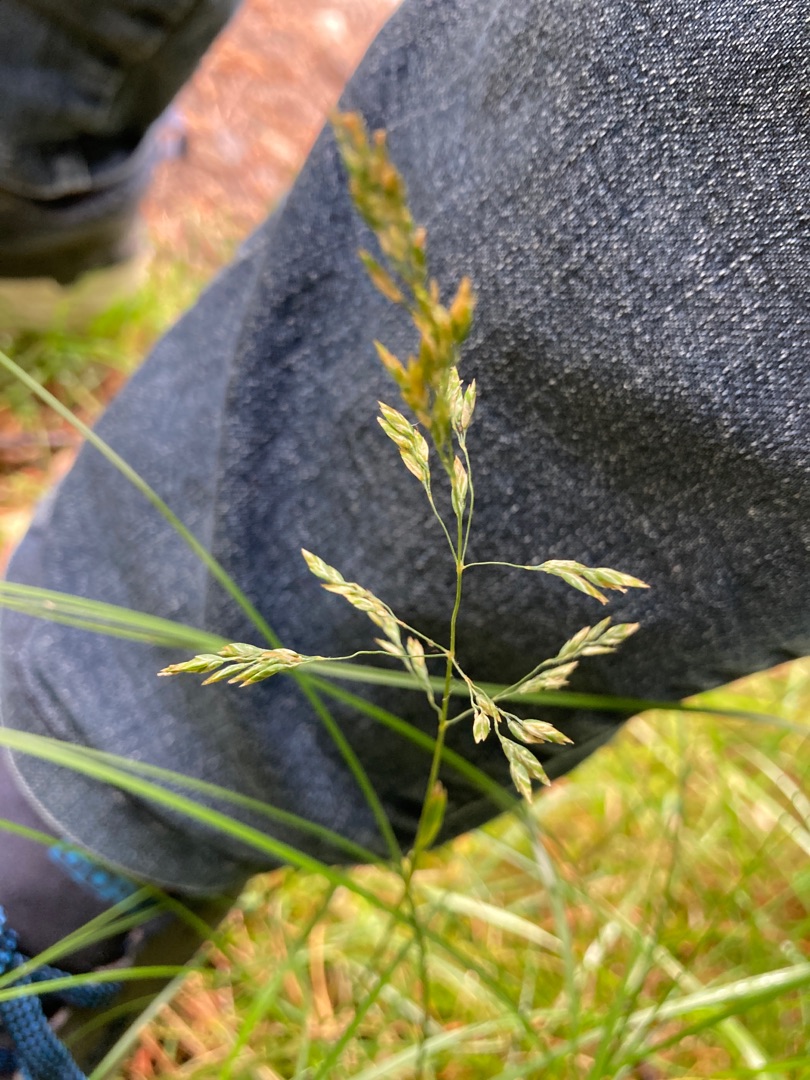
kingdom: Plantae
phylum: Tracheophyta
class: Liliopsida
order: Poales
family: Poaceae
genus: Poa
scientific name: Poa pratensis
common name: Eng-rapgræs
